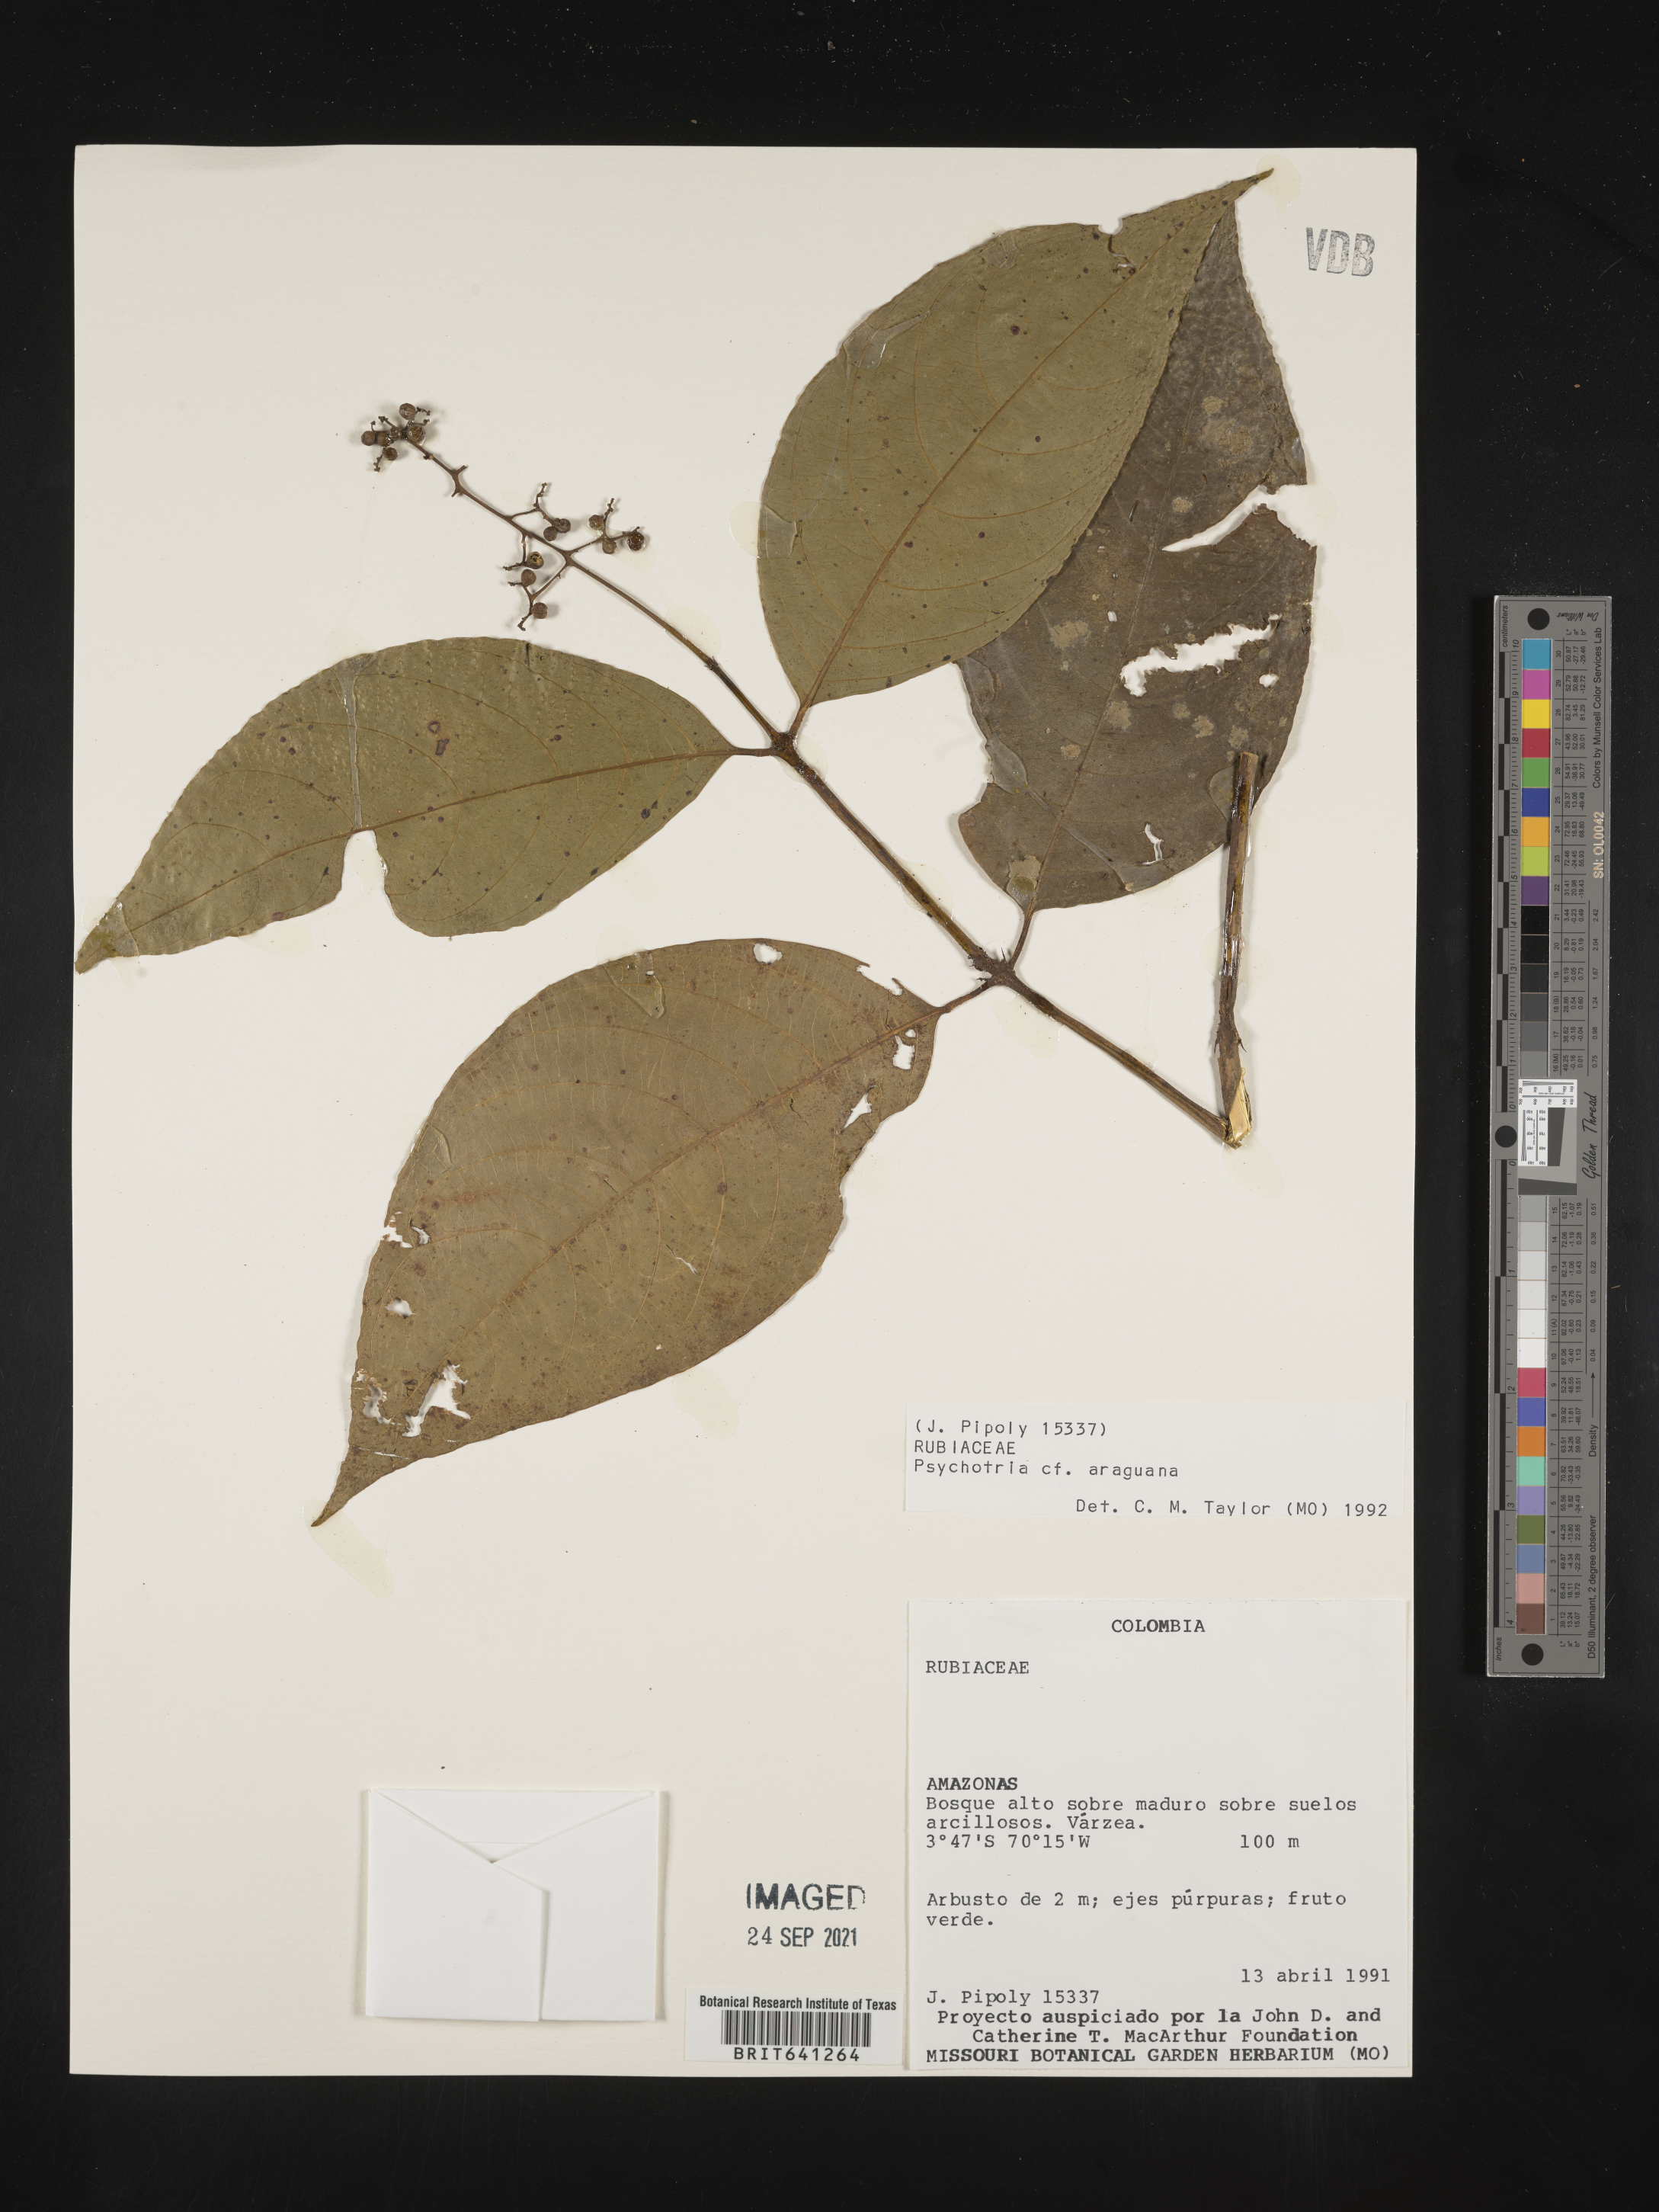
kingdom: Plantae
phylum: Tracheophyta
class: Magnoliopsida
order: Gentianales
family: Rubiaceae
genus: Psychotria
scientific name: Psychotria
